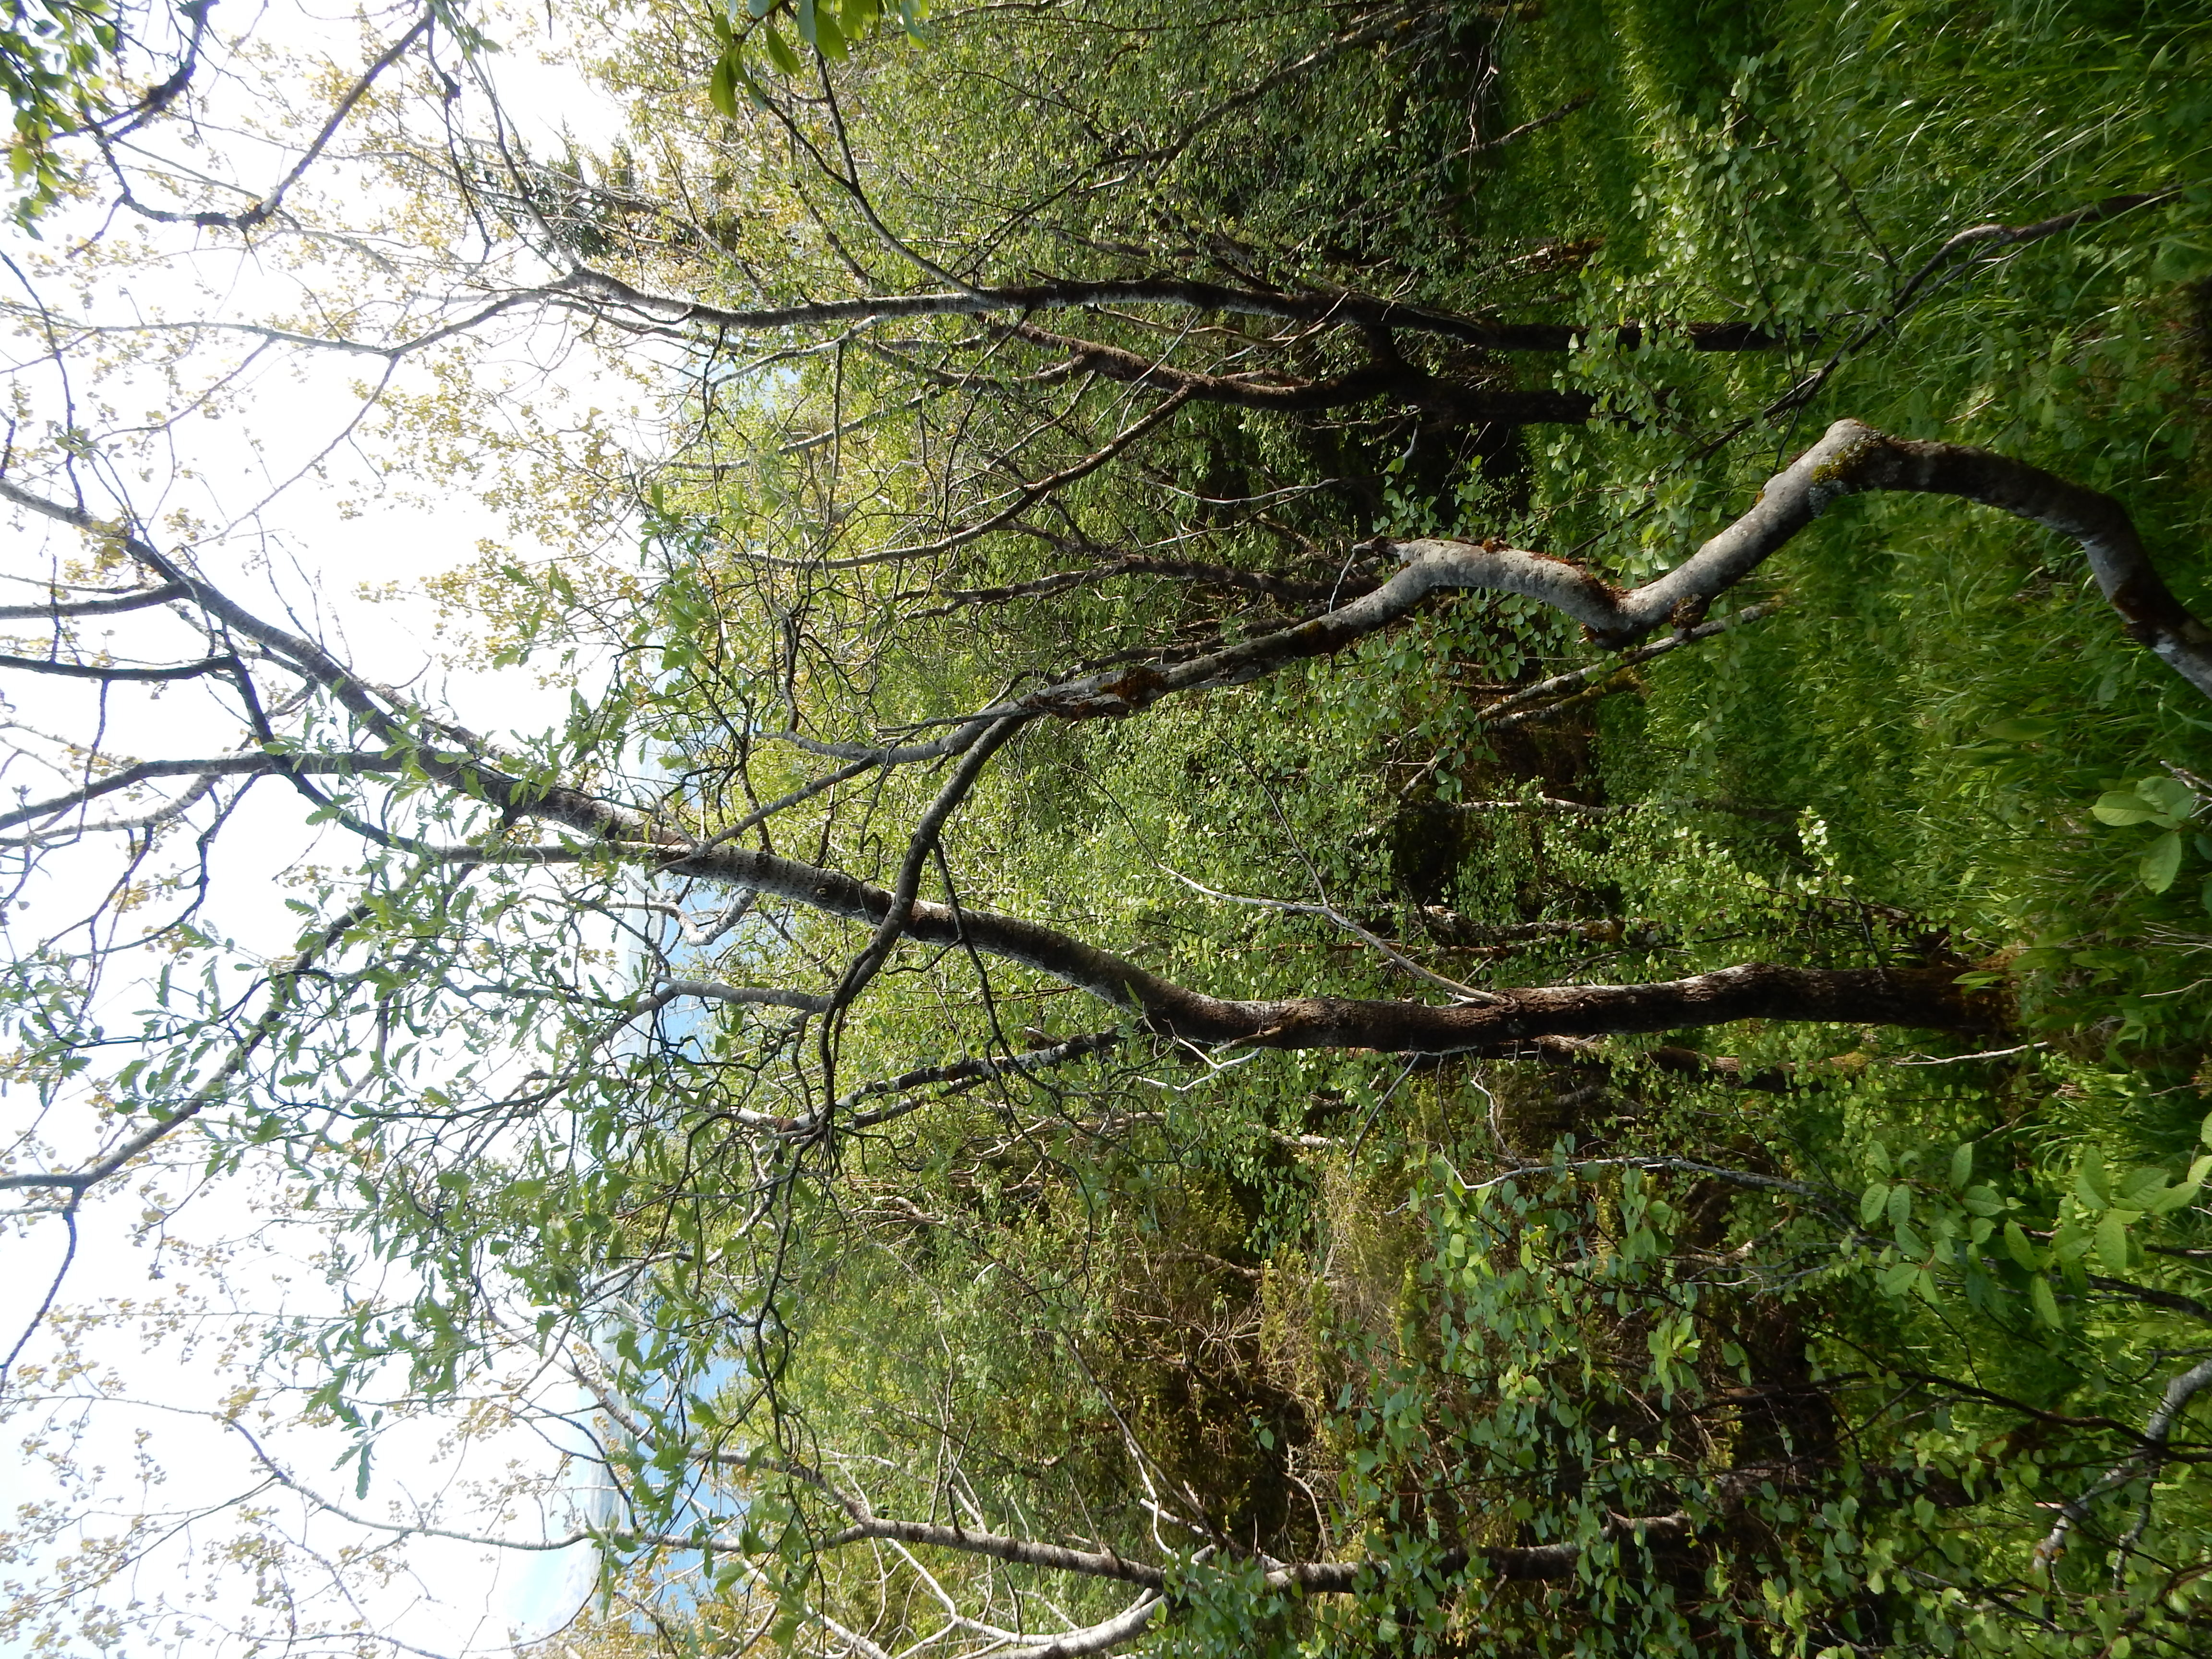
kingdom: Plantae
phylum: Tracheophyta
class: Magnoliopsida
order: Rosales
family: Rosaceae
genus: Hedlundia
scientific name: Hedlundia lancifolia
